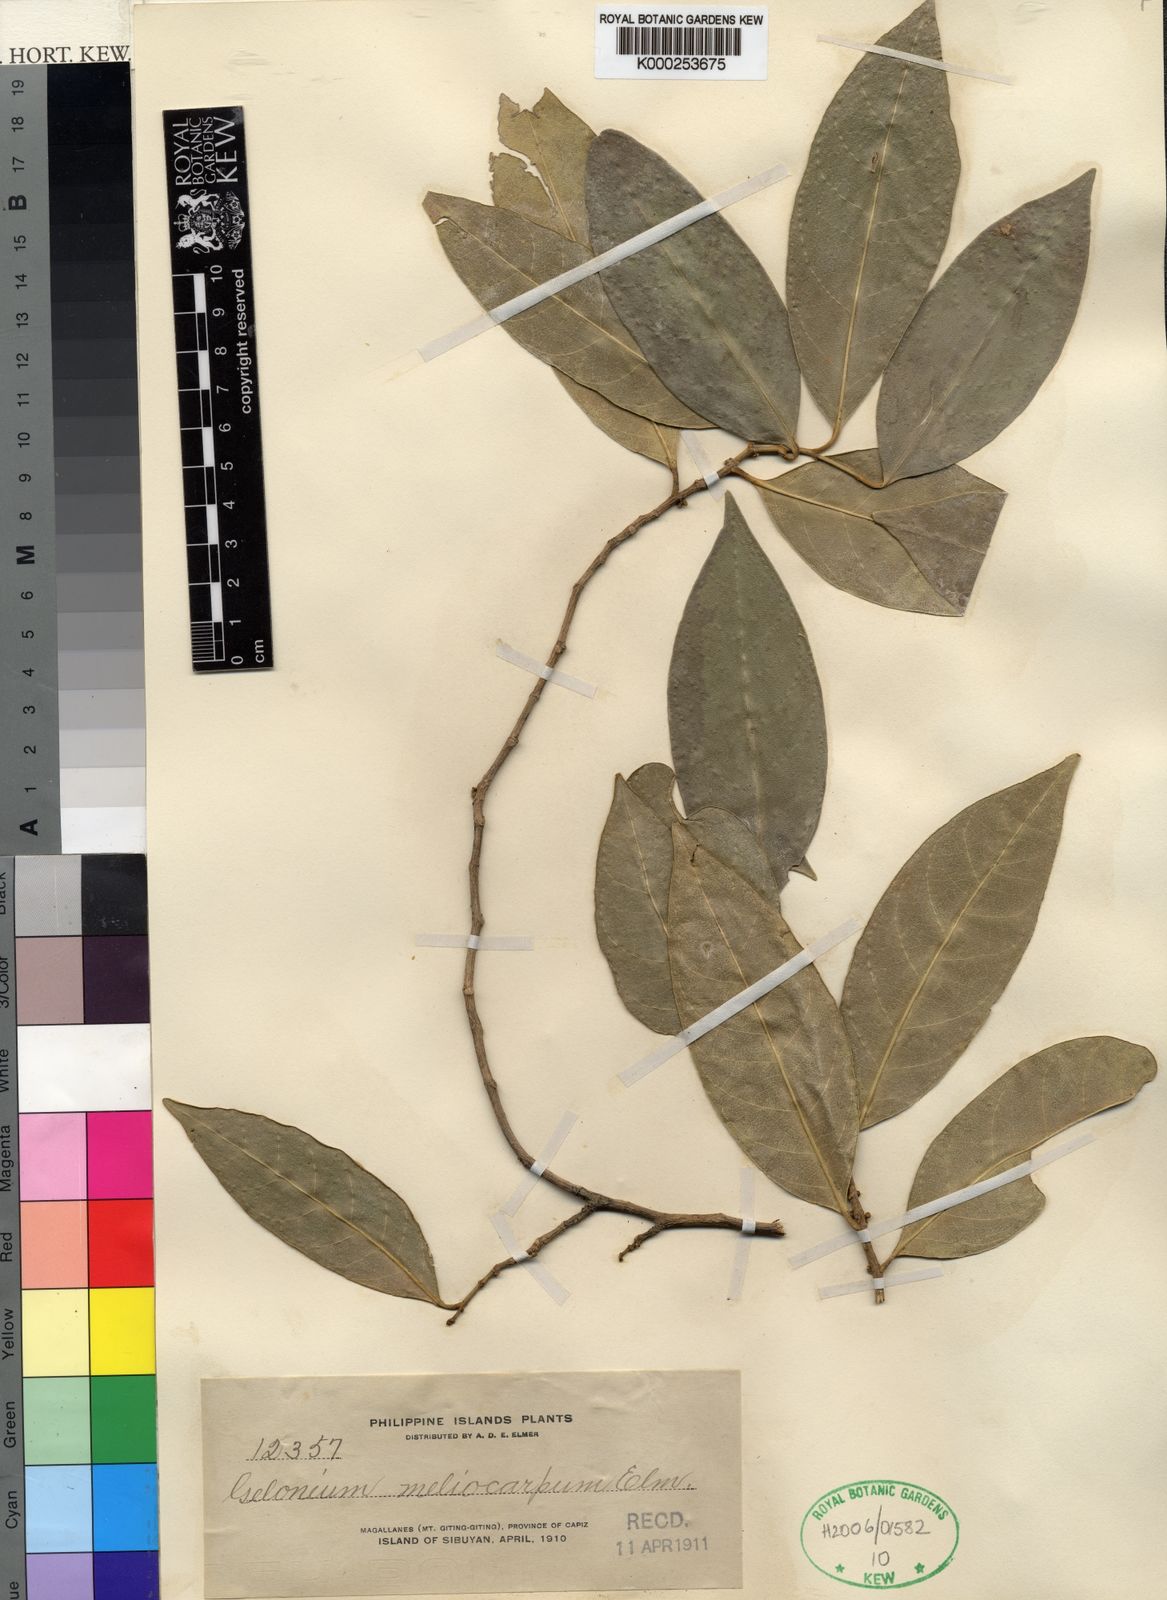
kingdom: Plantae
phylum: Tracheophyta
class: Magnoliopsida
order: Malpighiales
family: Euphorbiaceae
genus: Suregada
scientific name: Suregada glomerulata
